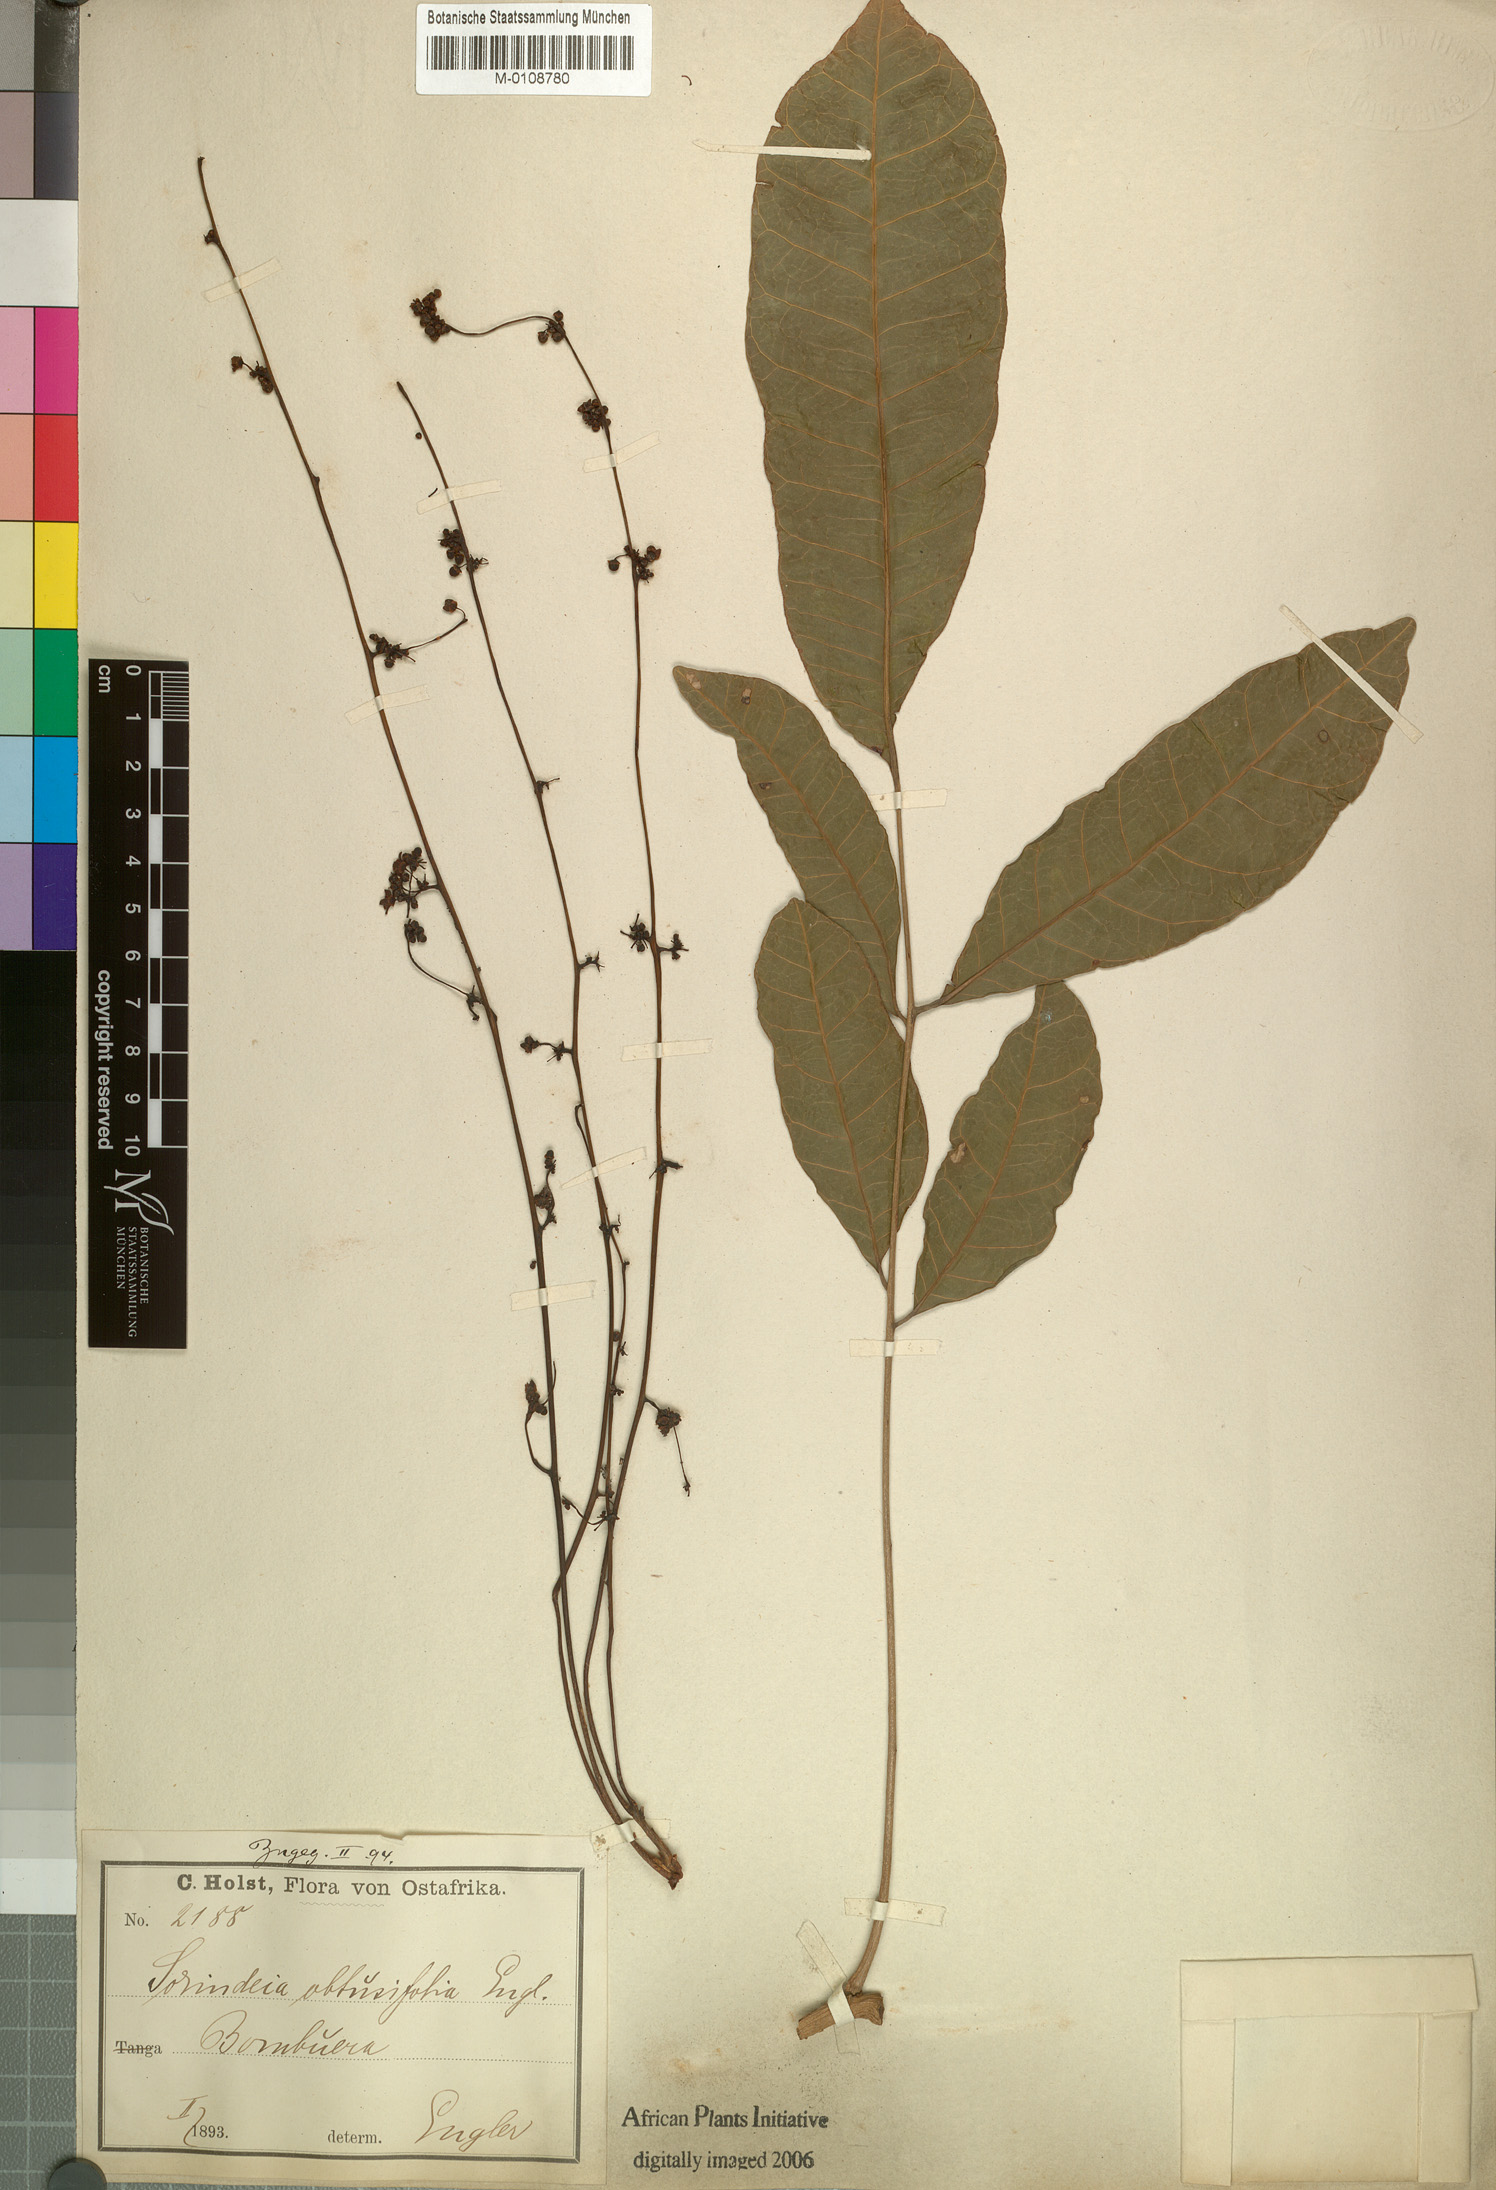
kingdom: Plantae
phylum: Tracheophyta
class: Magnoliopsida
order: Sapindales
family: Anacardiaceae
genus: Sorindeia
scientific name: Sorindeia madagascariensis
